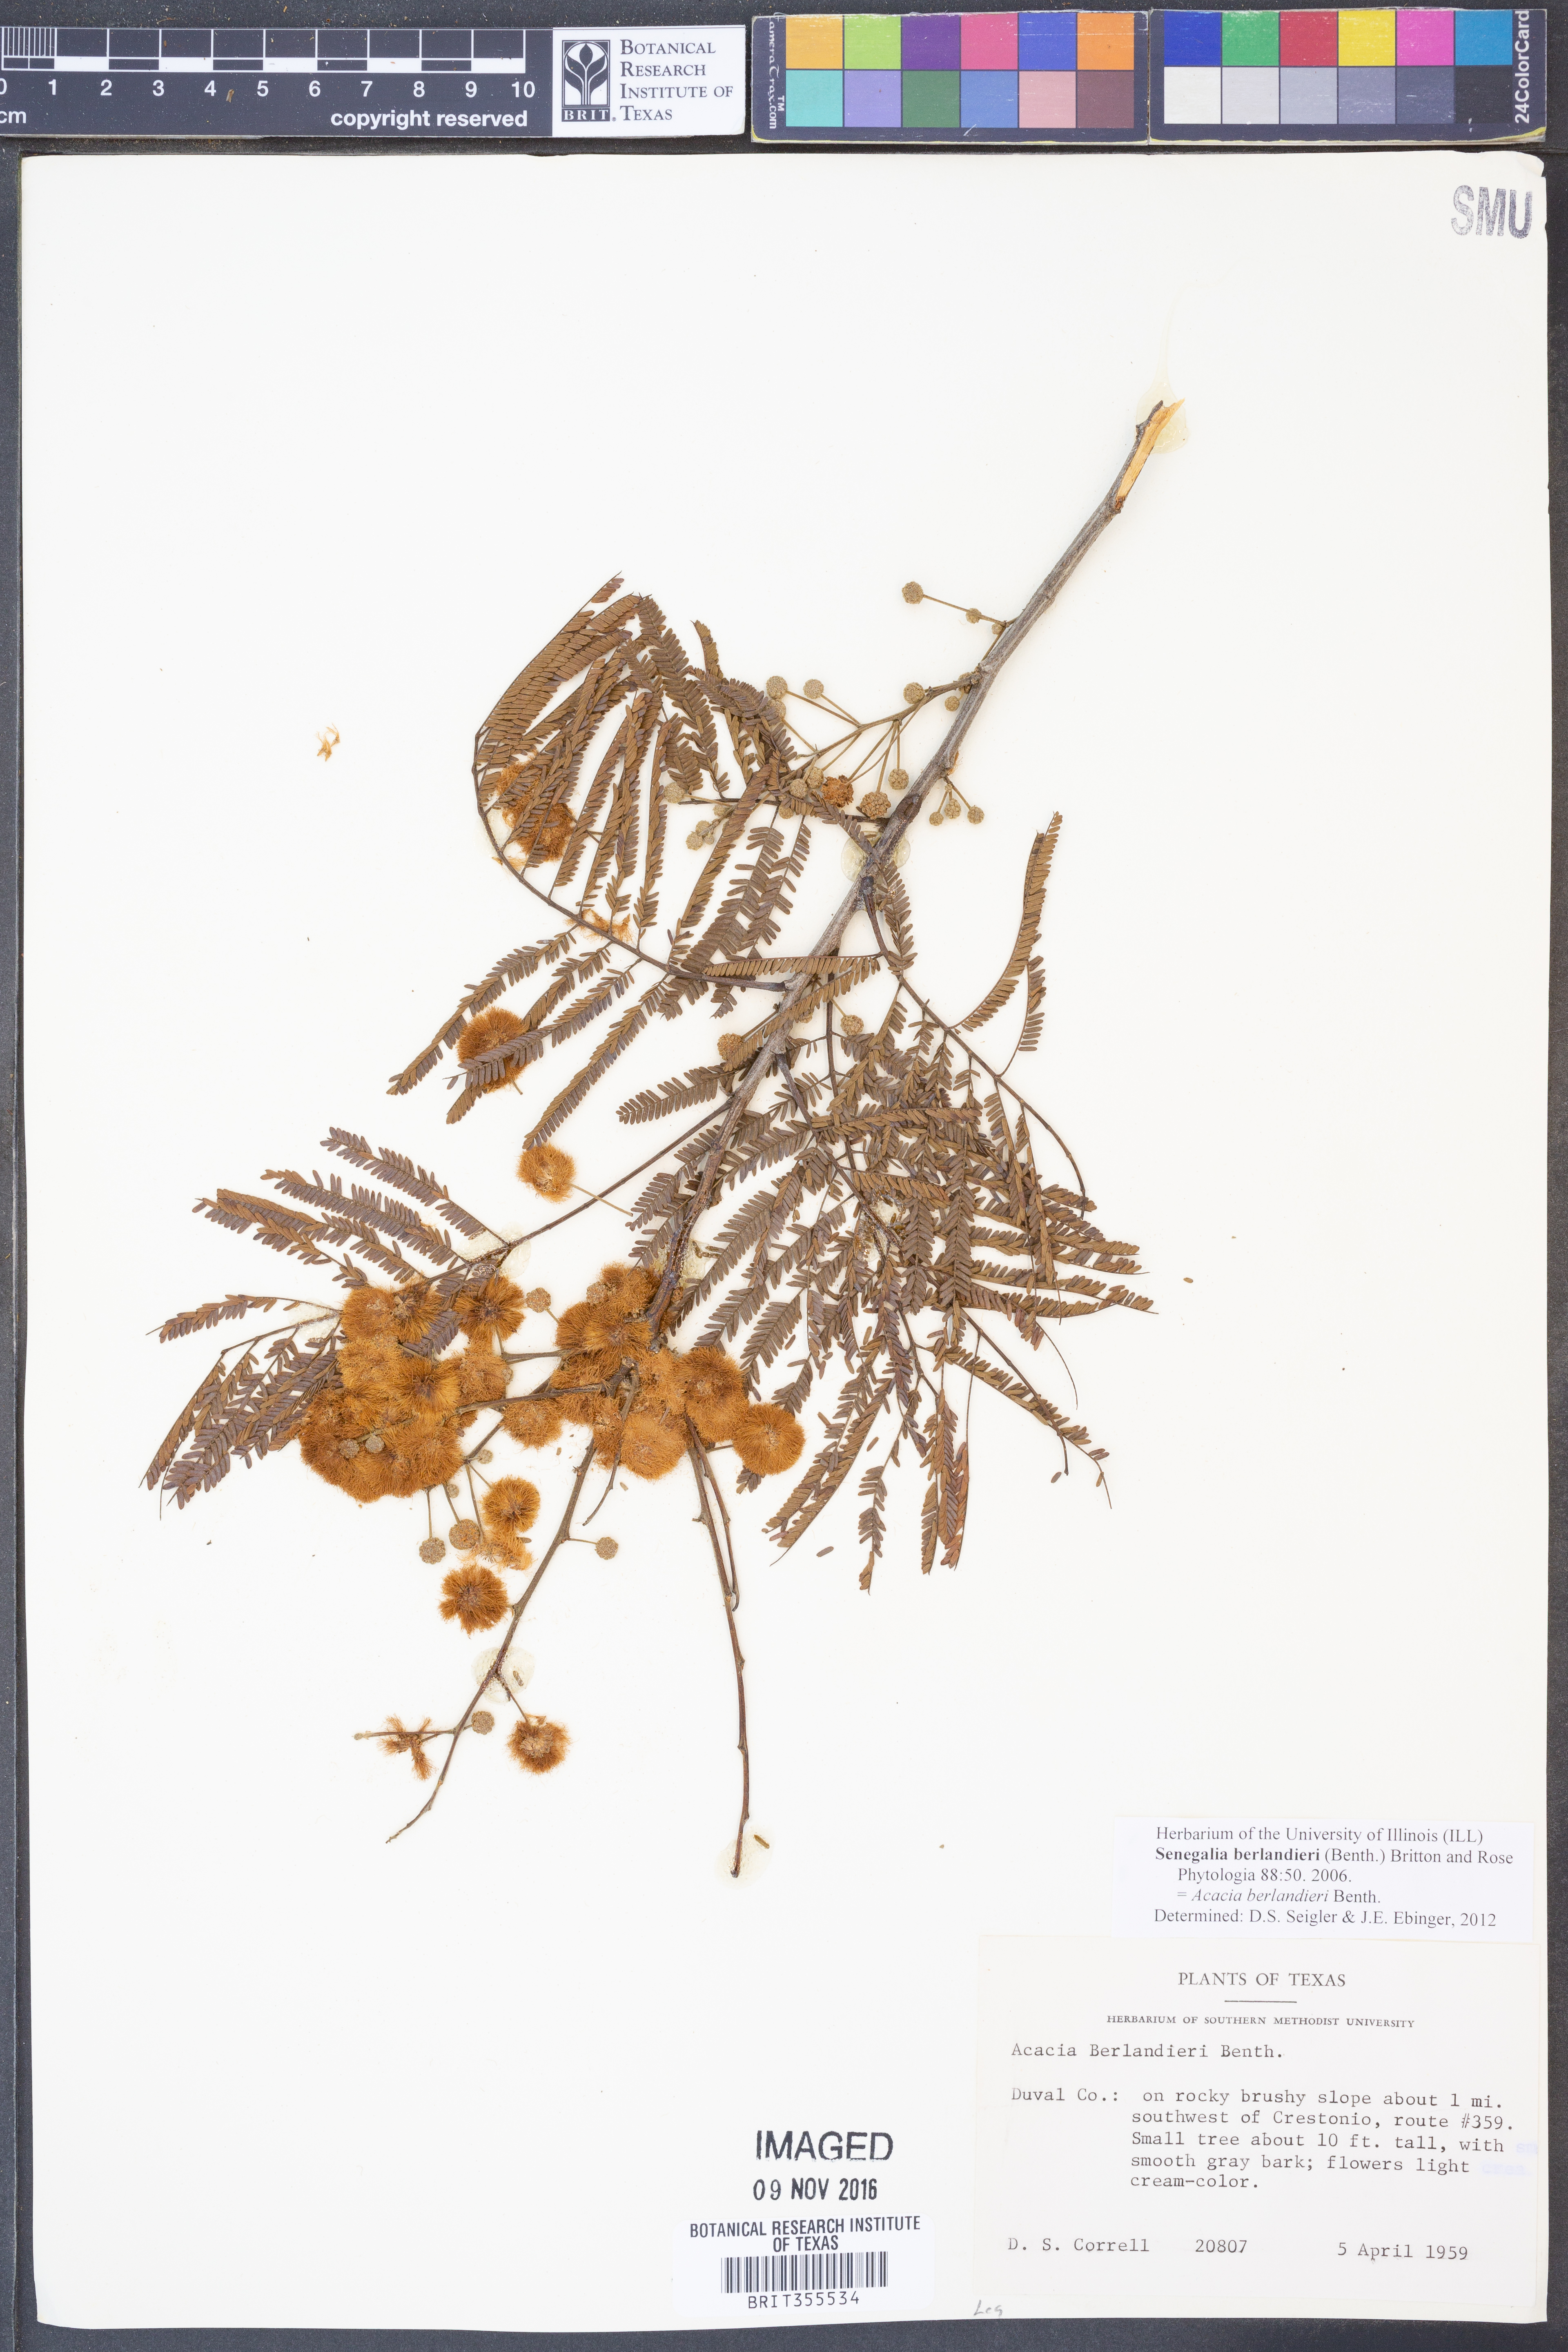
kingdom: Plantae
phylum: Tracheophyta
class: Magnoliopsida
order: Fabales
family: Fabaceae
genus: Senegalia
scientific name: Senegalia berlandieri
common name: Berlandier acacia
